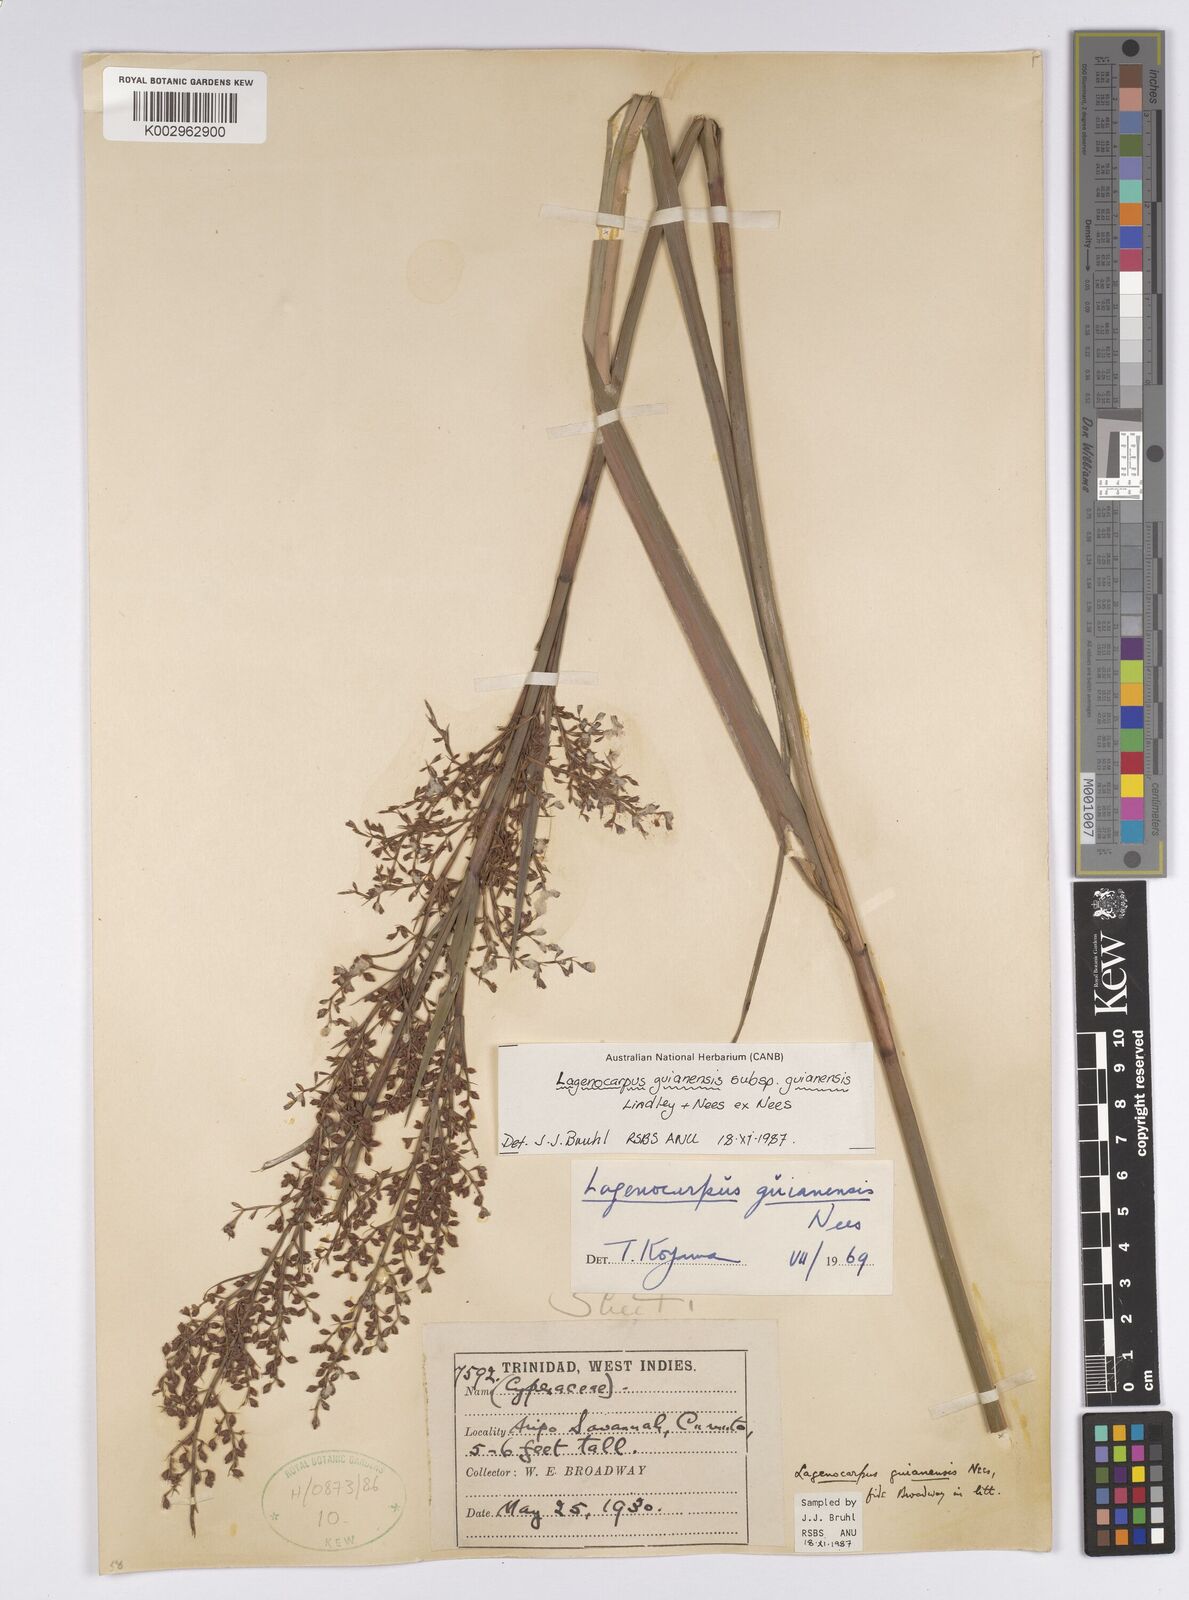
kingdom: Plantae
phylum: Tracheophyta
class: Liliopsida
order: Poales
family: Cyperaceae
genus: Lagenocarpus
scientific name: Lagenocarpus guianensis
